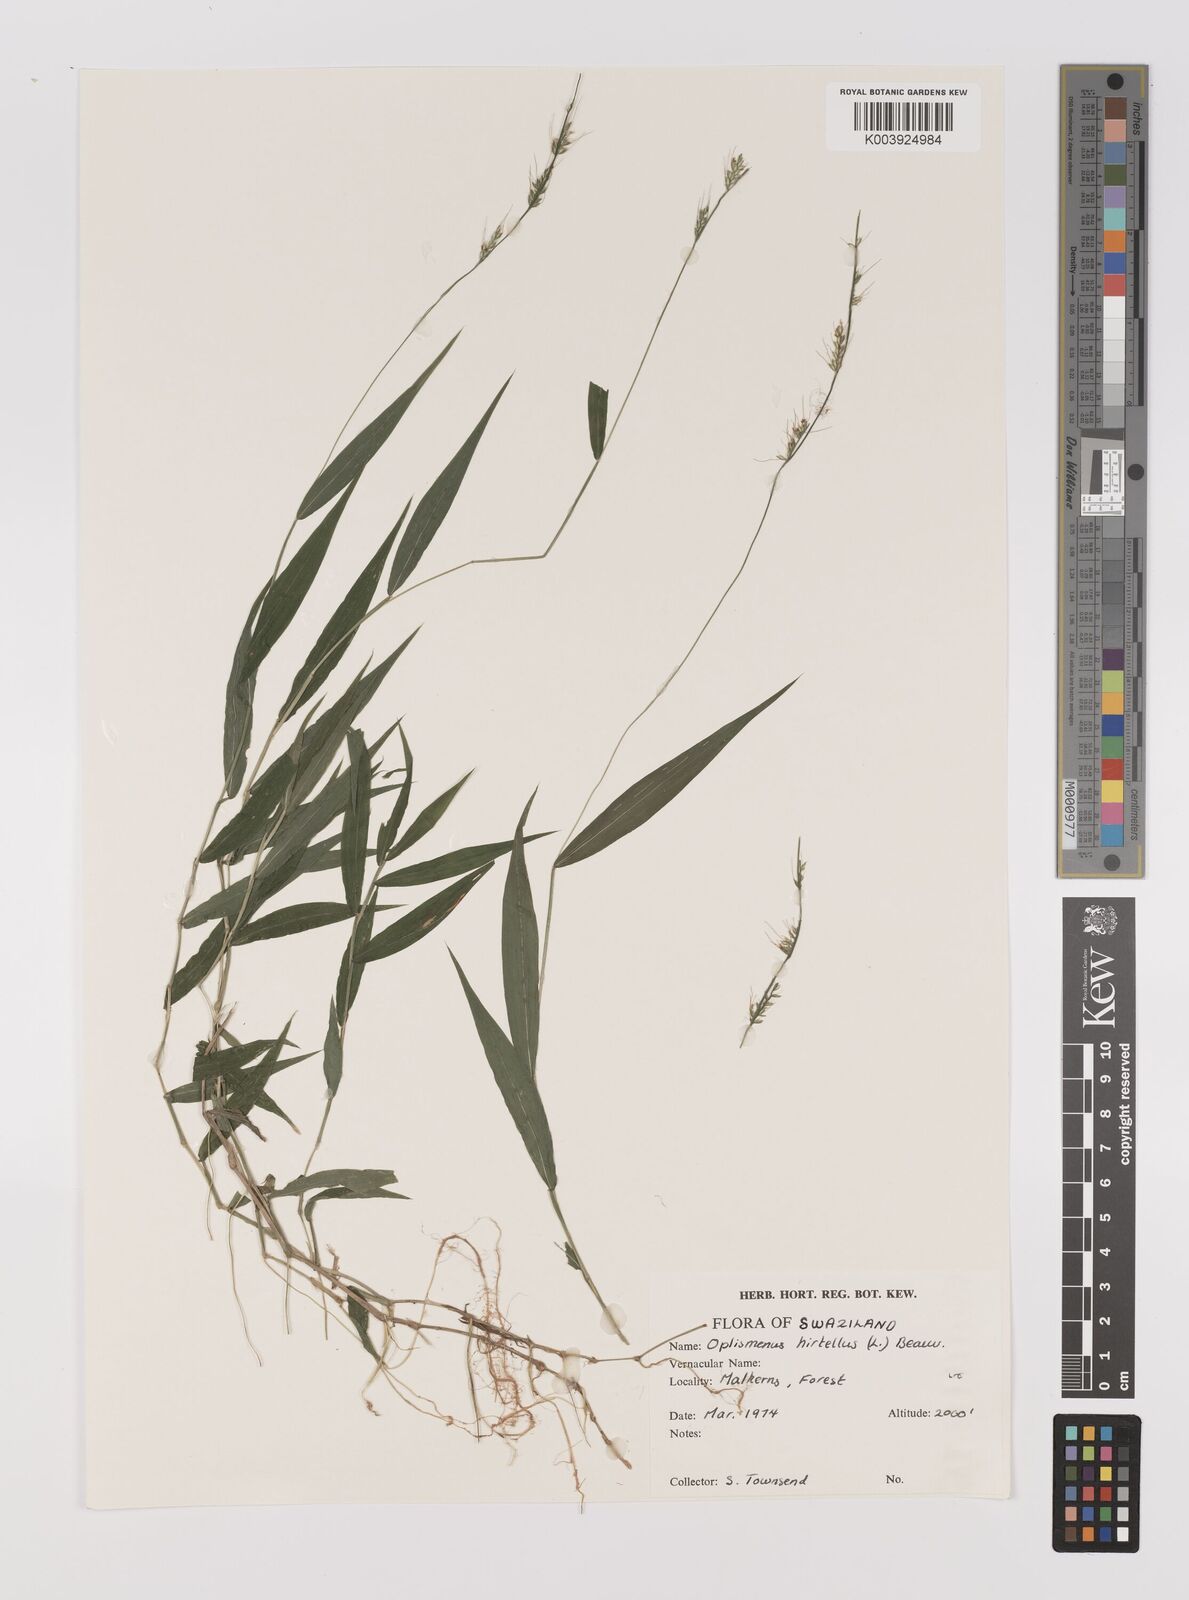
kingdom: Plantae
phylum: Tracheophyta
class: Liliopsida
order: Poales
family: Poaceae
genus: Oplismenus
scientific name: Oplismenus hirtellus
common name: Basketgrass
